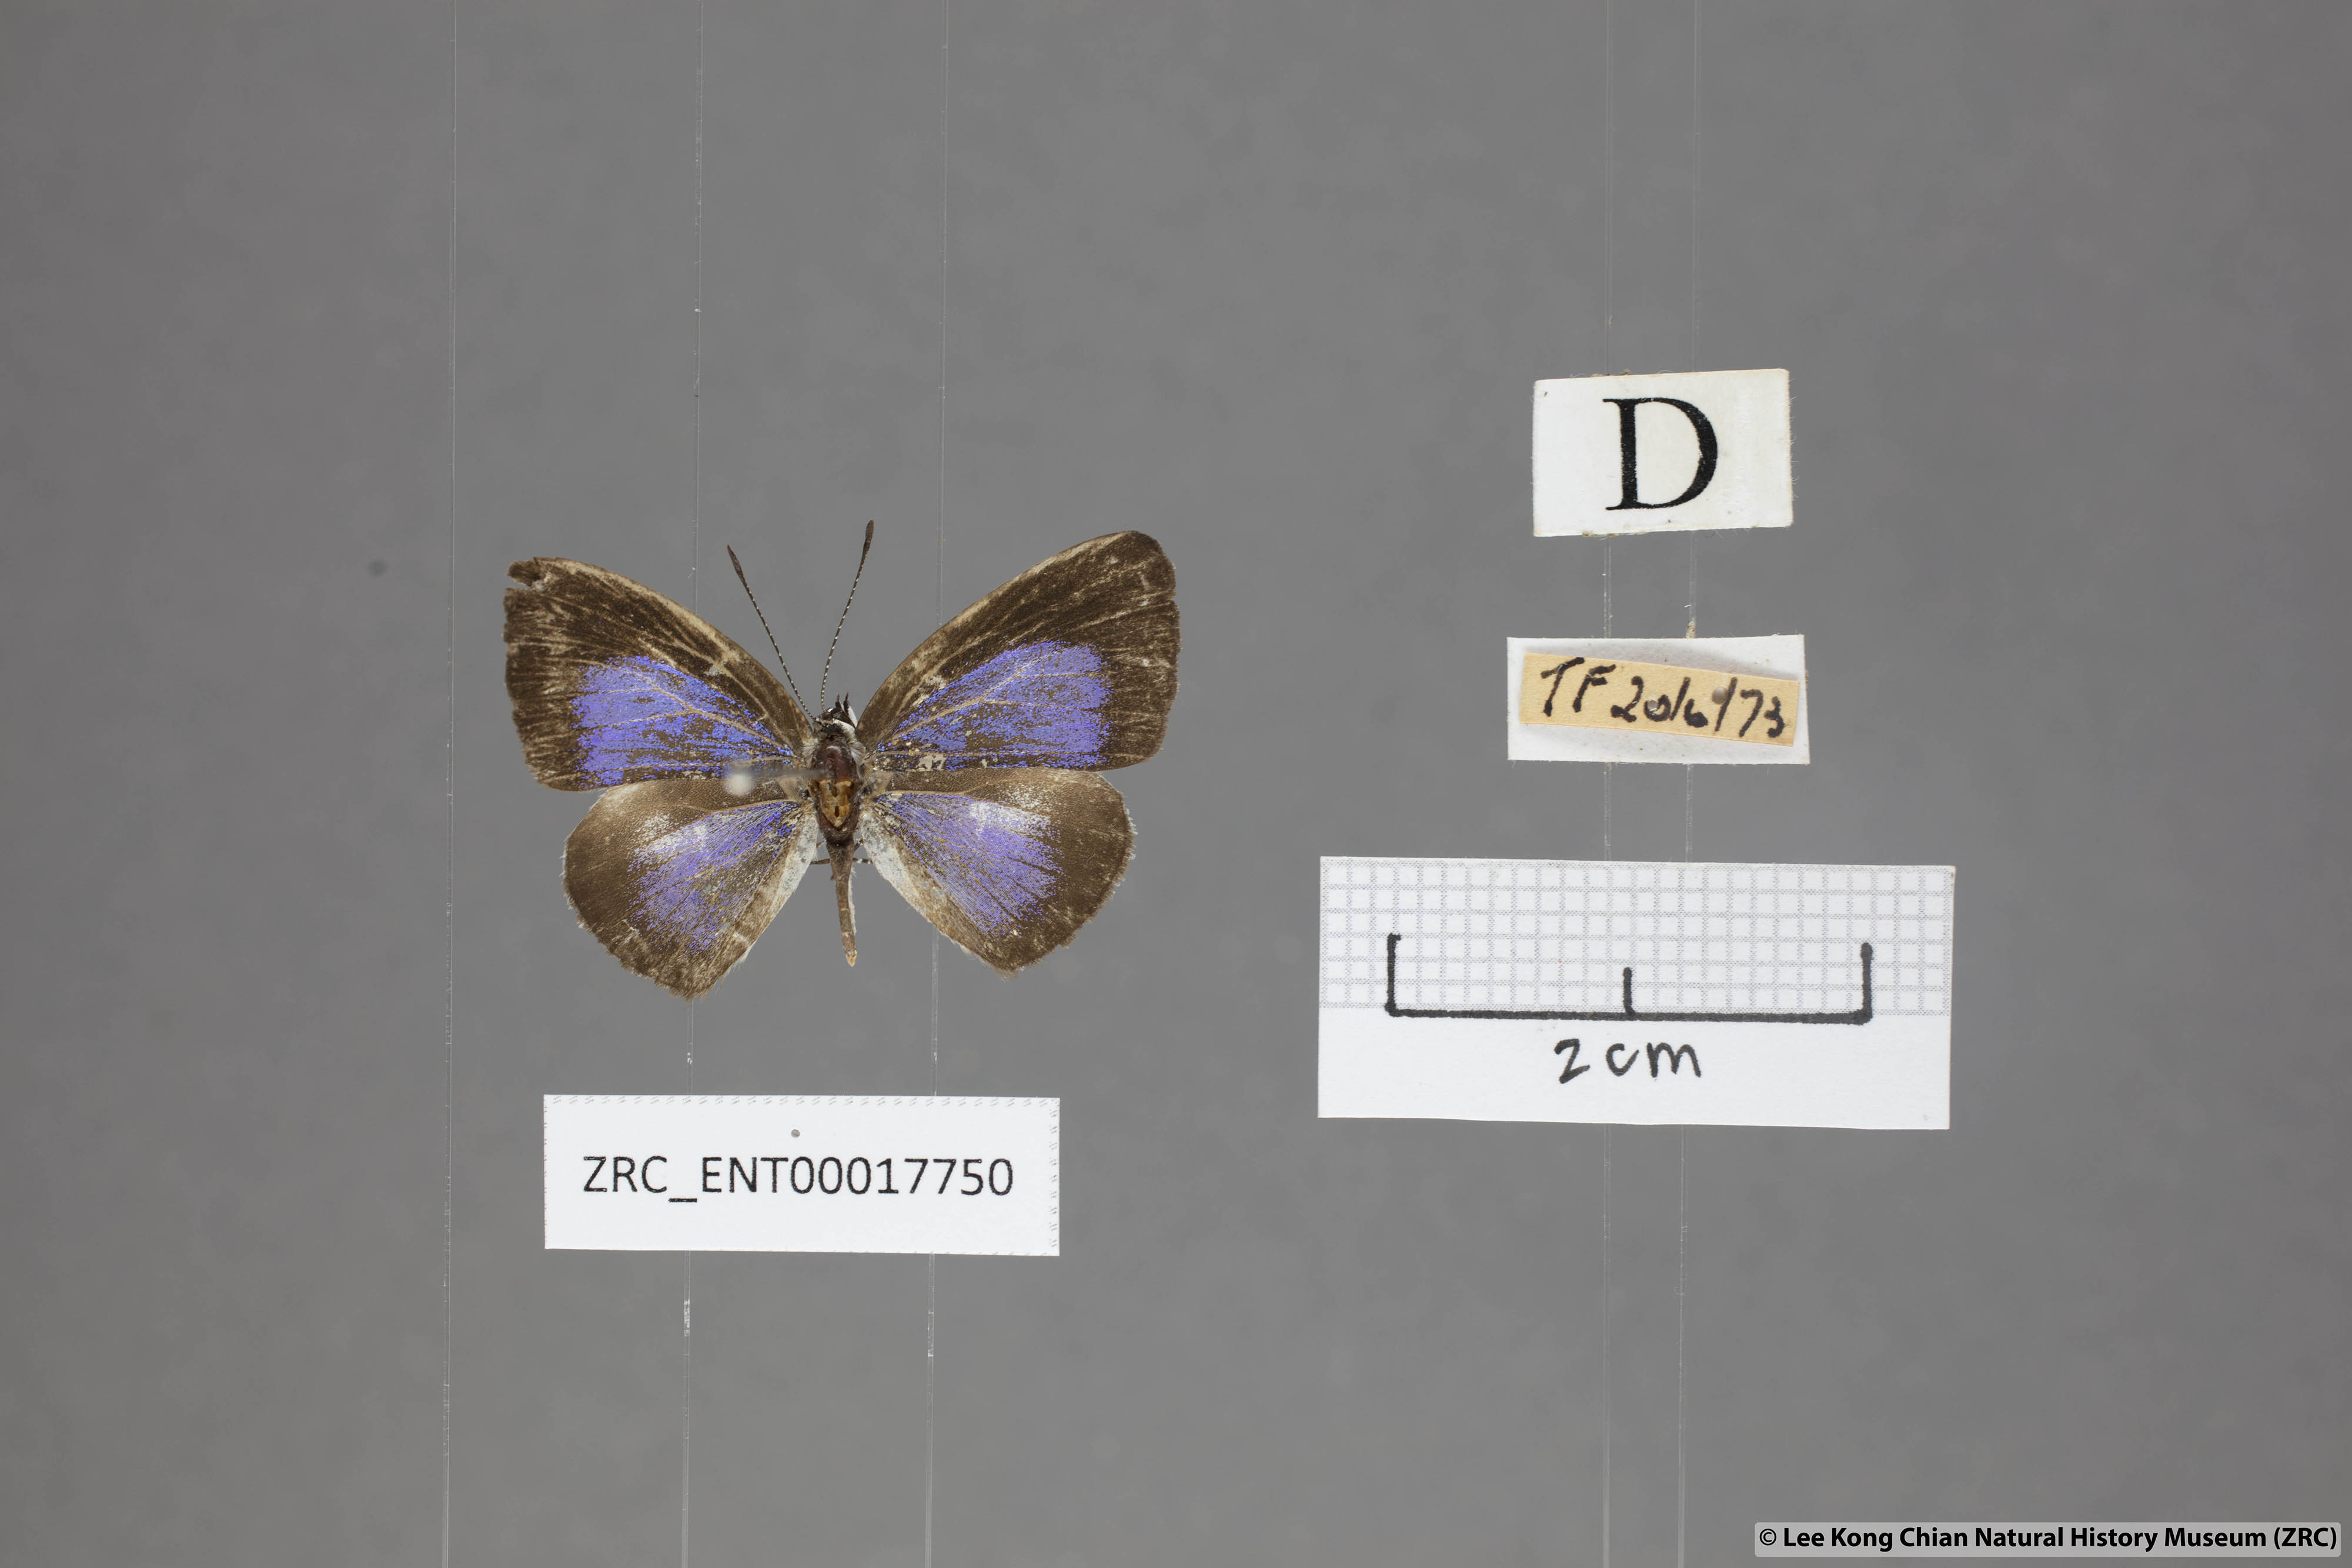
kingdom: Animalia
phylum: Arthropoda
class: Insecta
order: Lepidoptera
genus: Plautella
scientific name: Plautella
